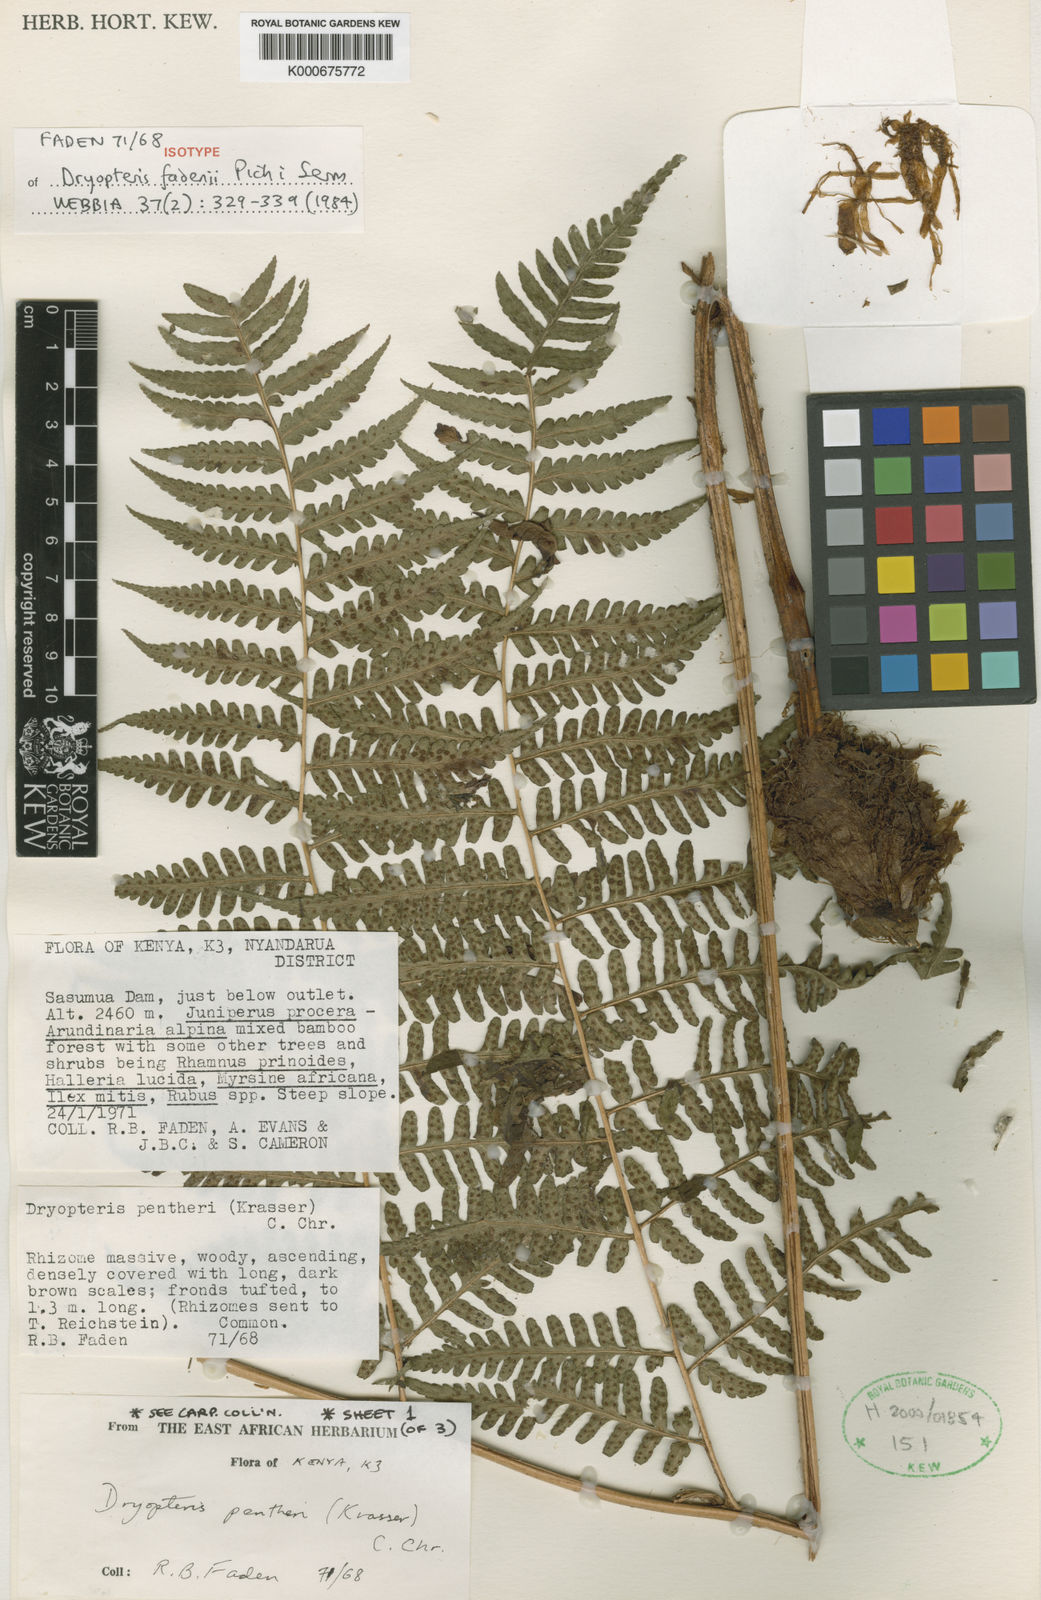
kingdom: Plantae
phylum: Tracheophyta
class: Polypodiopsida
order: Polypodiales
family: Dryopteridaceae
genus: Dryopteris
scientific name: Dryopteris fadenii
